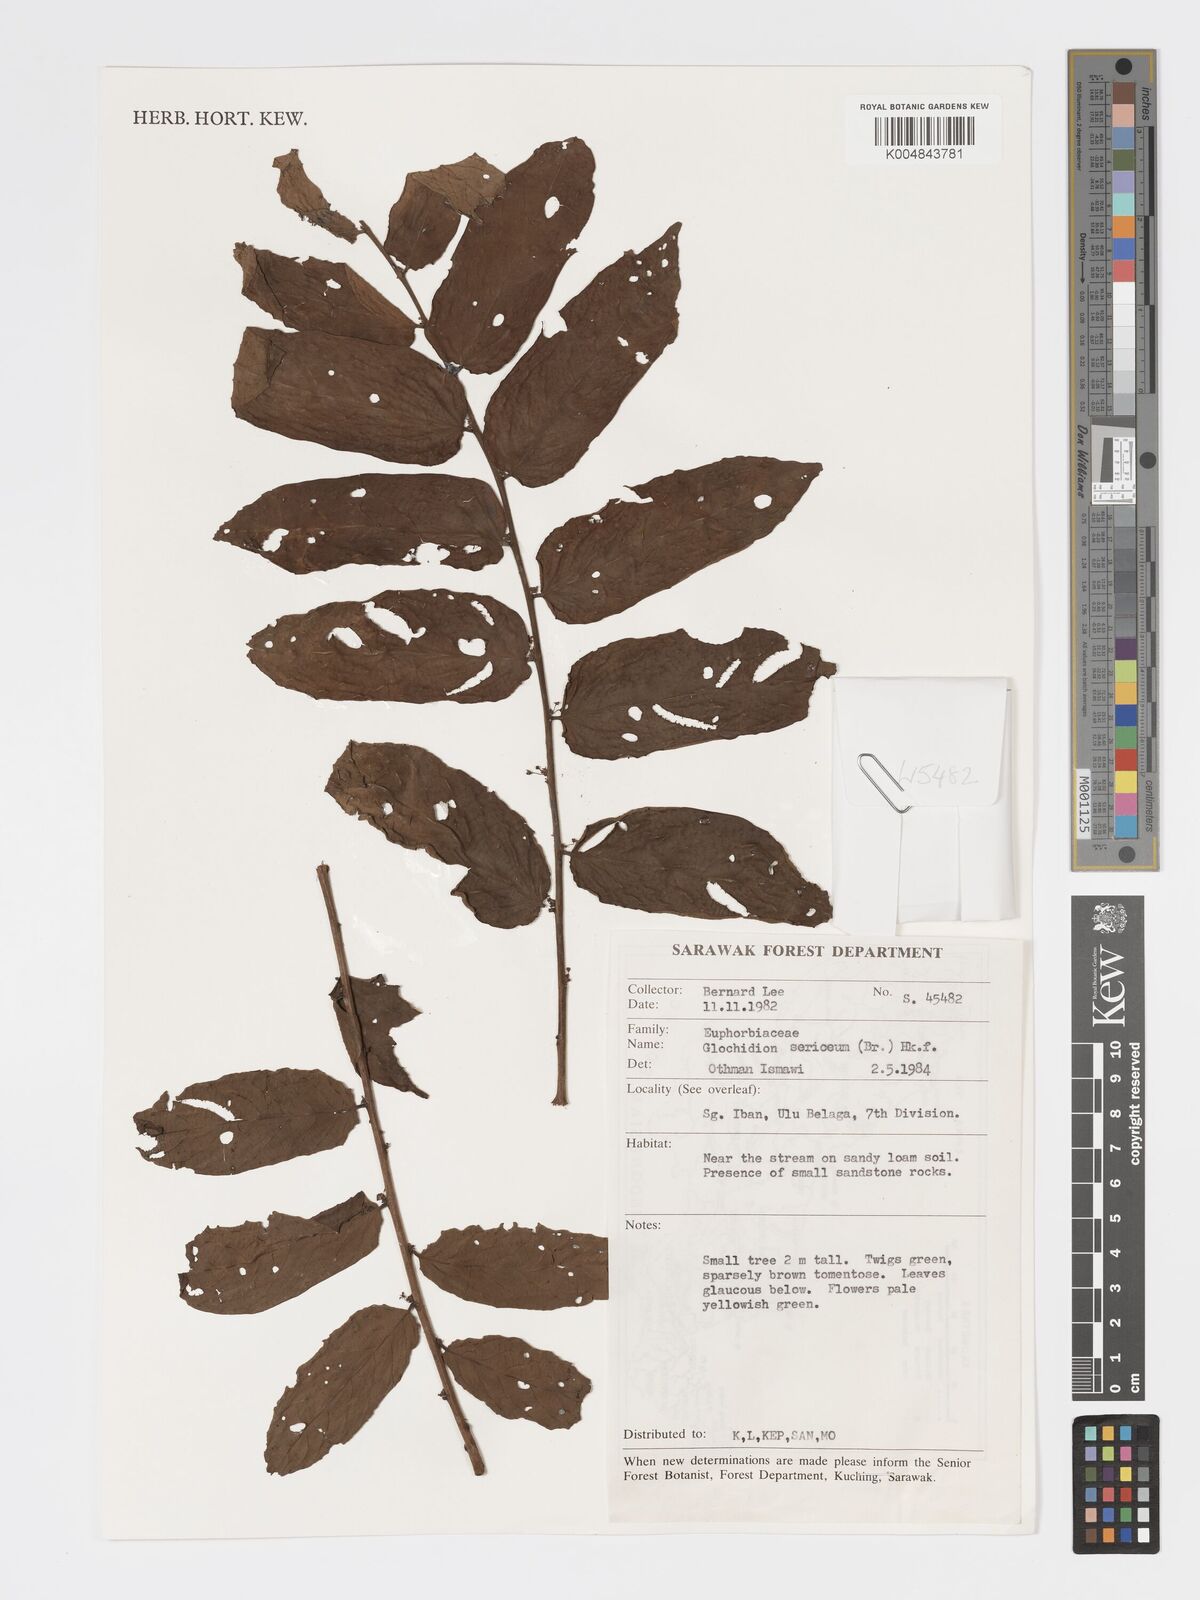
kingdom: Plantae
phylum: Tracheophyta
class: Magnoliopsida
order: Malpighiales
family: Phyllanthaceae
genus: Glochidion
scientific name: Glochidion sericeum
